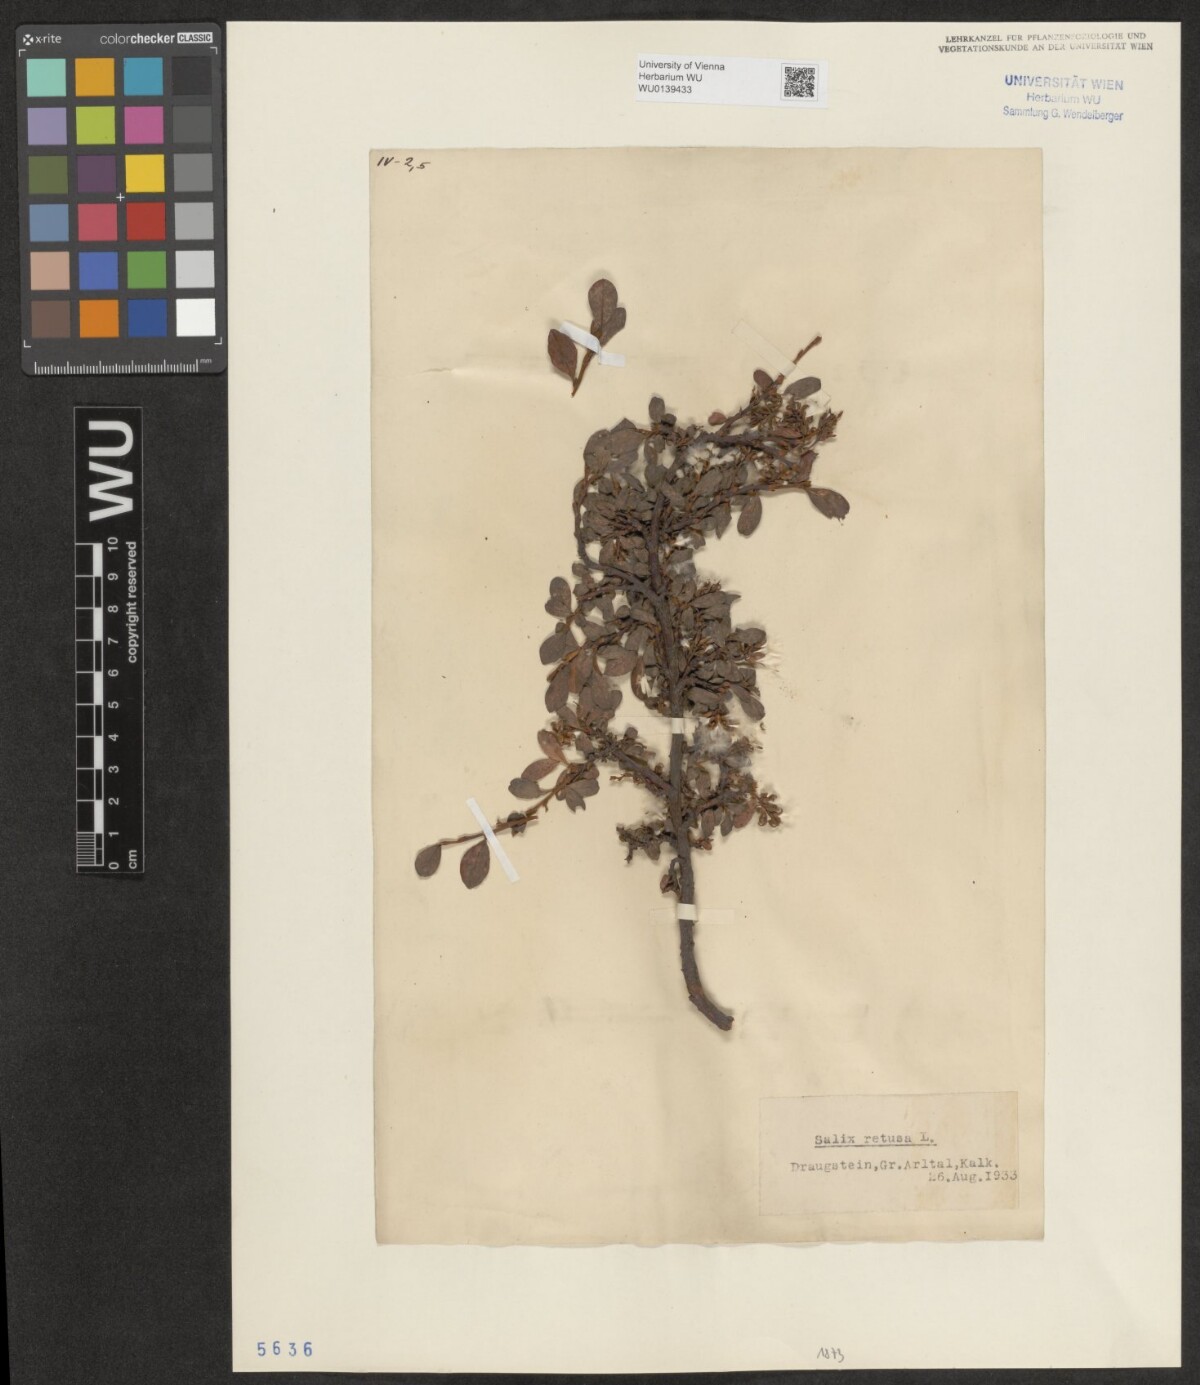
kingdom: Plantae
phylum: Tracheophyta
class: Magnoliopsida
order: Malpighiales
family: Salicaceae
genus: Salix
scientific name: Salix retusa
